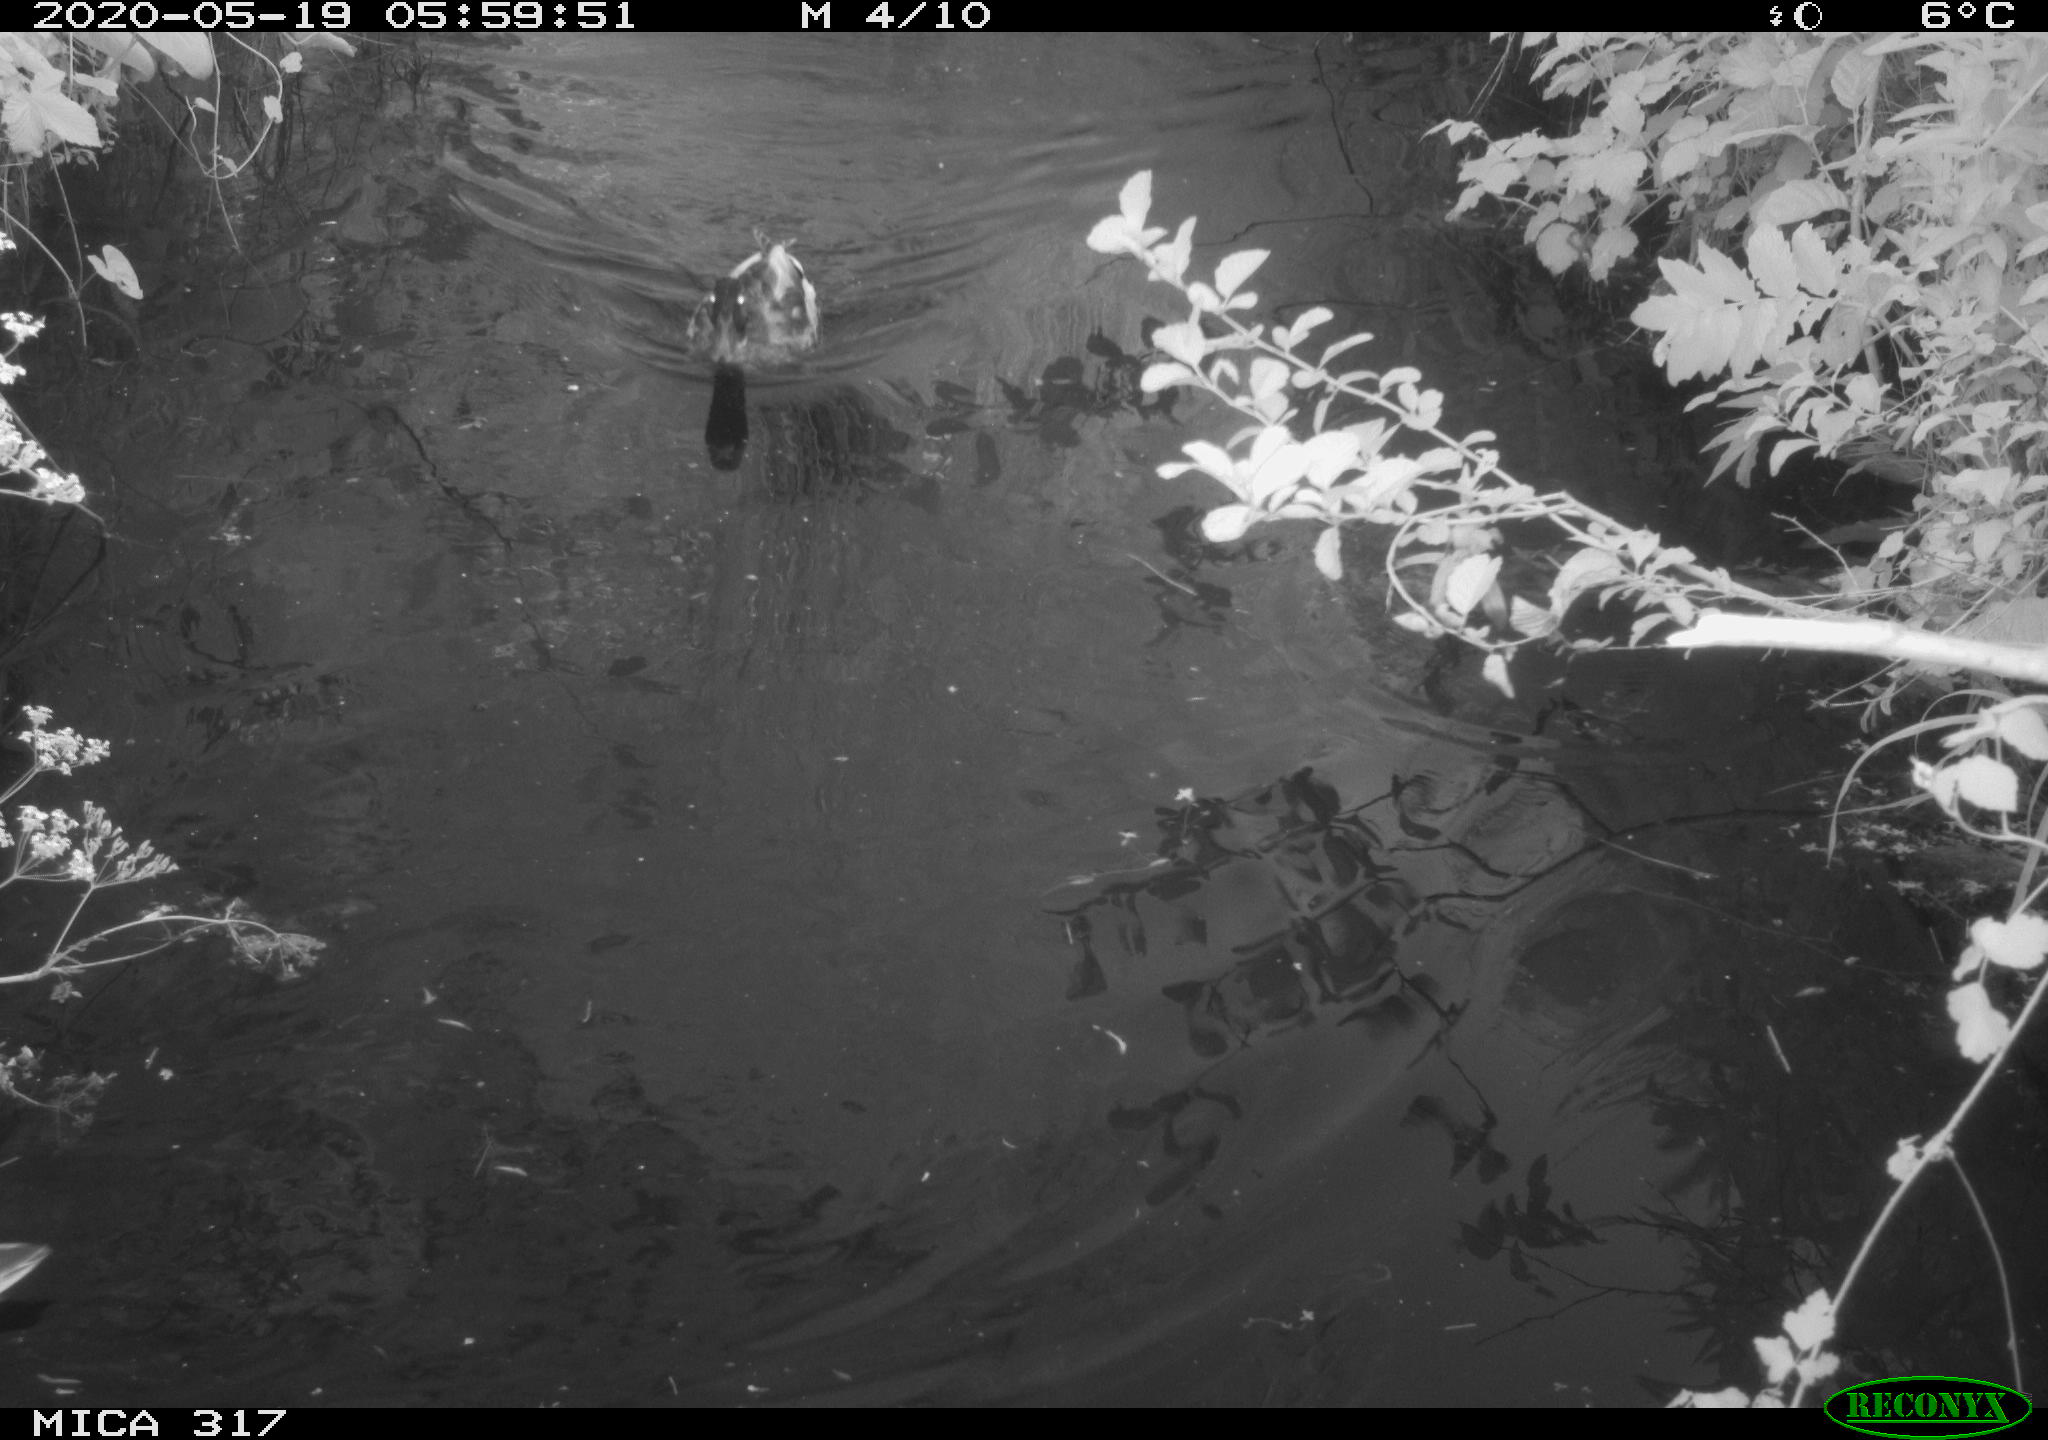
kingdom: Animalia
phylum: Chordata
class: Aves
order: Anseriformes
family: Anatidae
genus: Anas
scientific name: Anas platyrhynchos
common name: Mallard
